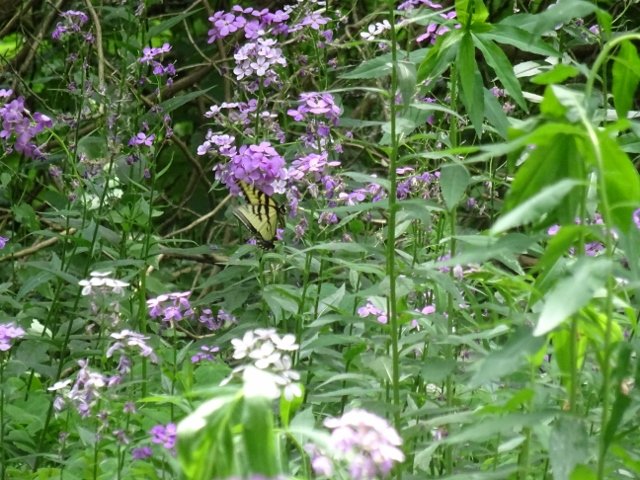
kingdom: Animalia
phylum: Arthropoda
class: Insecta
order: Lepidoptera
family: Papilionidae
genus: Pterourus
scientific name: Pterourus glaucus
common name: Eastern Tiger Swallowtail
